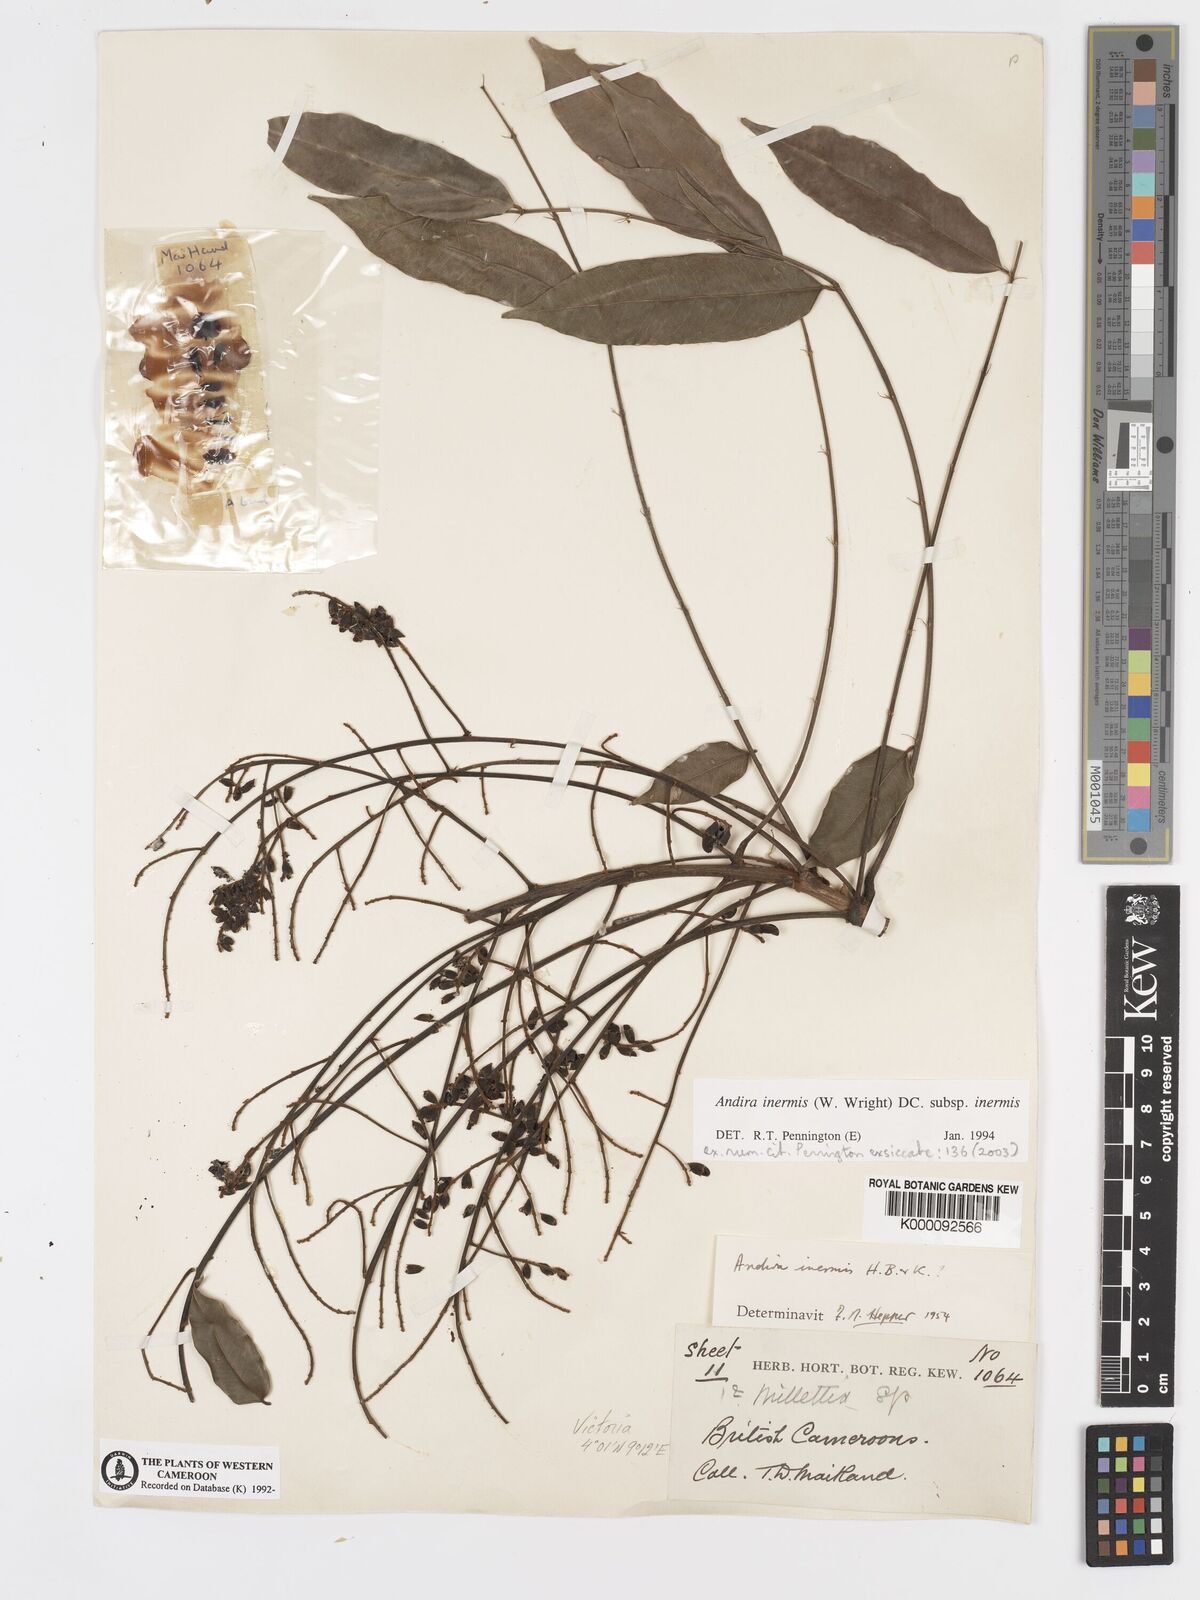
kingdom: Plantae
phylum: Tracheophyta
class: Magnoliopsida
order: Fabales
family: Fabaceae
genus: Andira
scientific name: Andira inermis
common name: Angelin
